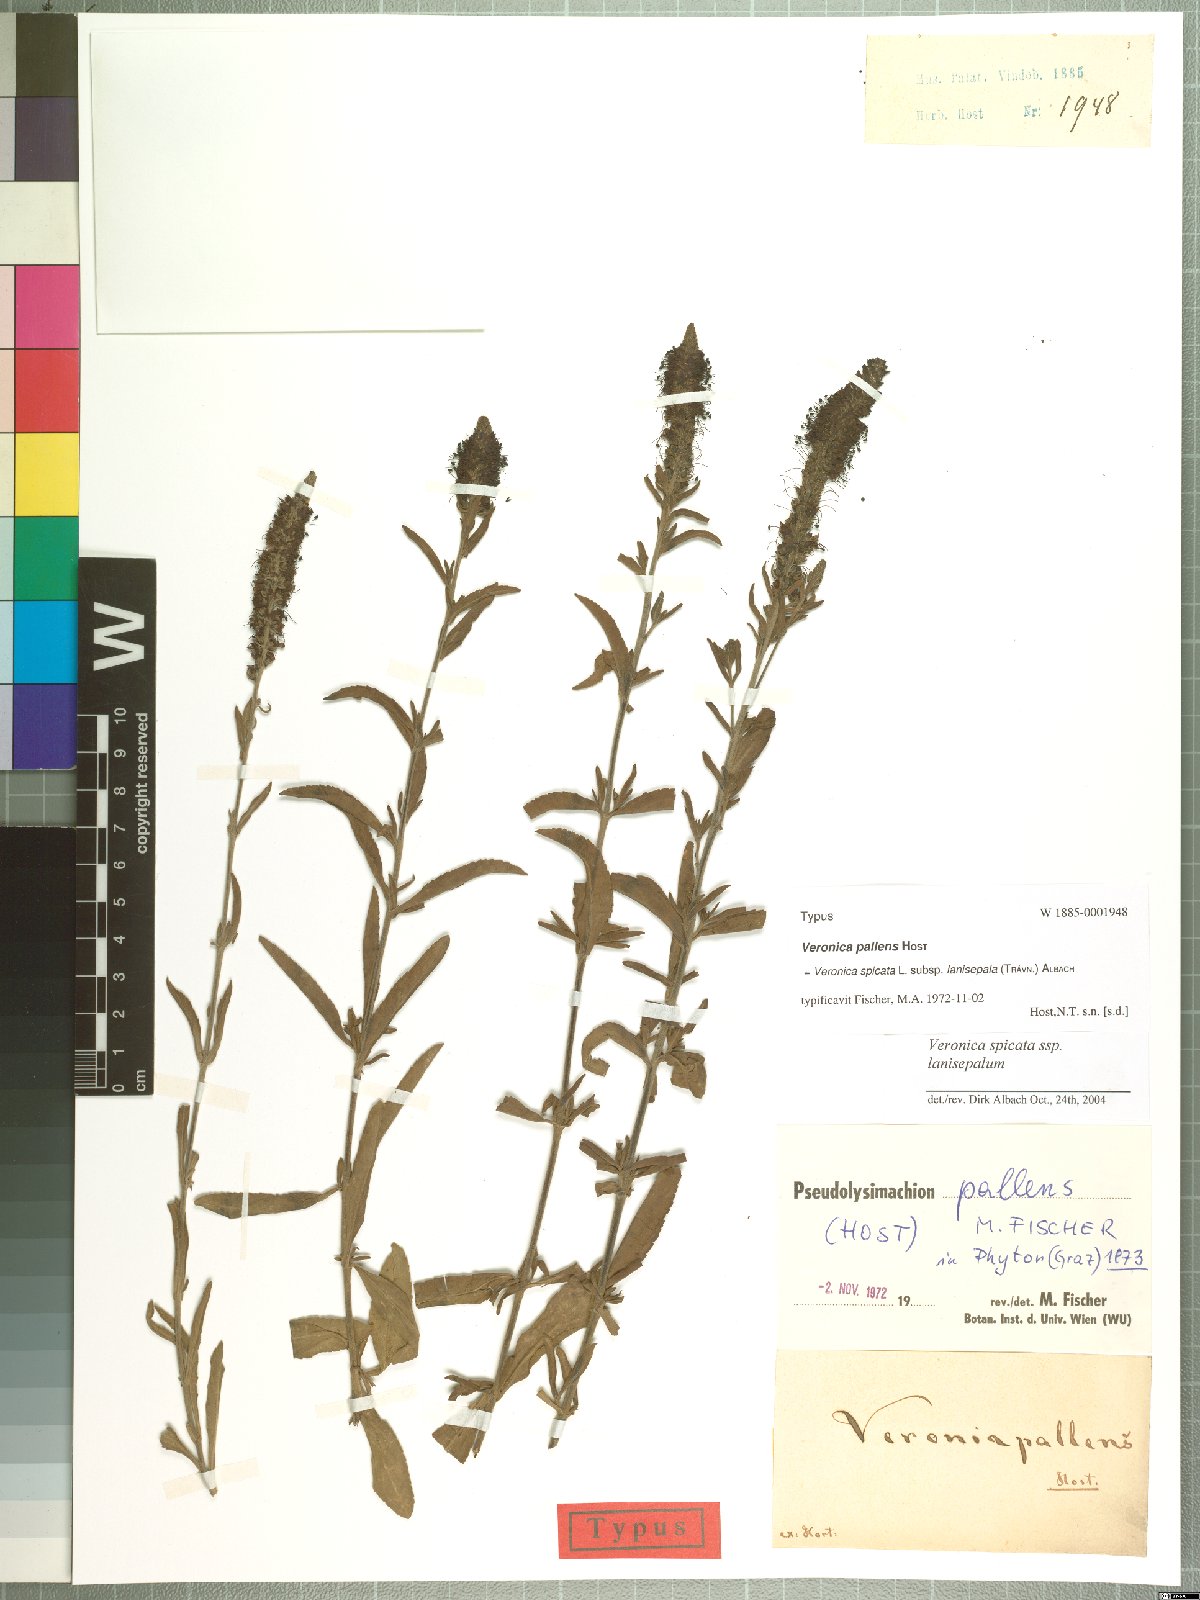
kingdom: Plantae
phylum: Tracheophyta
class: Magnoliopsida
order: Lamiales
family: Plantaginaceae
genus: Veronica
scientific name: Veronica spicata
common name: Spiked speedwell
